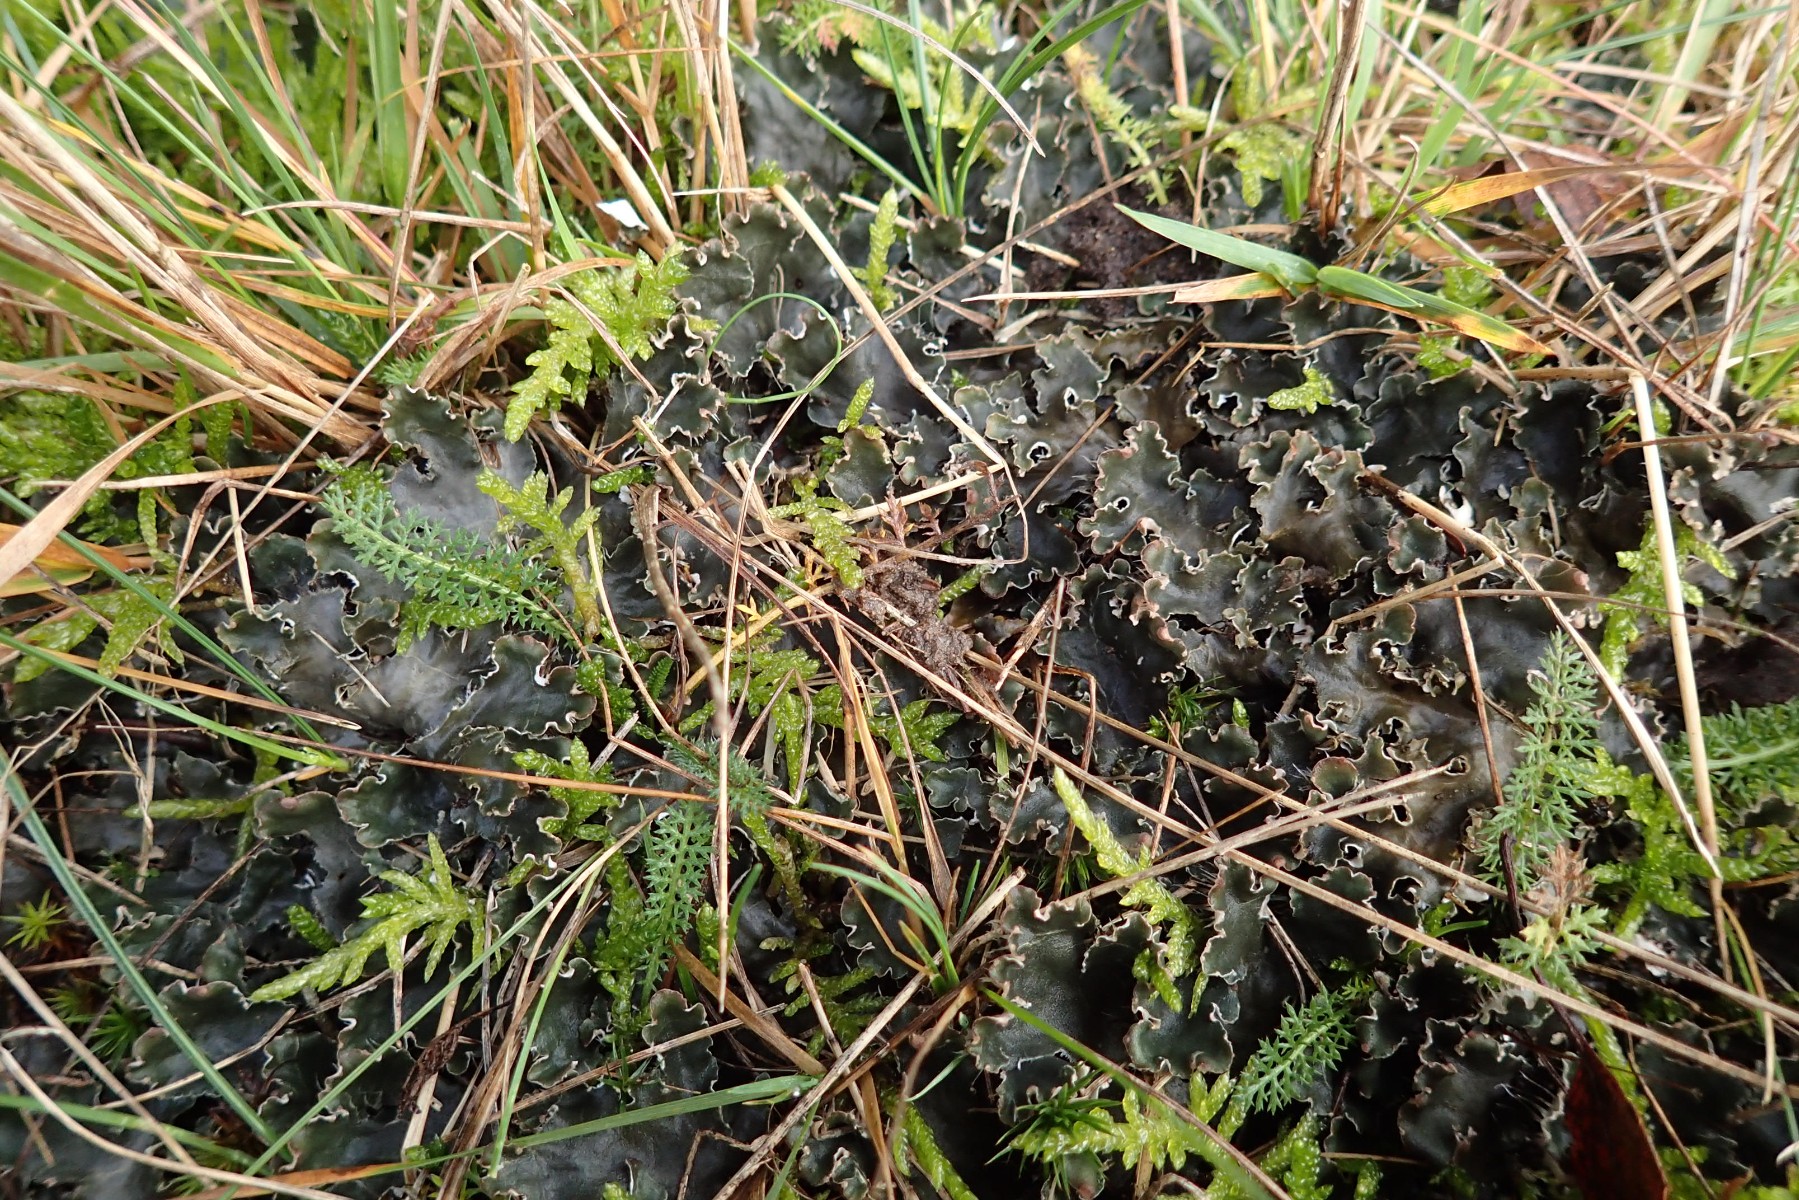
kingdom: Fungi
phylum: Ascomycota
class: Lecanoromycetes
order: Peltigerales
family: Peltigeraceae
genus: Peltigera
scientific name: Peltigera hymenina
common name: hinde-skjoldlav
